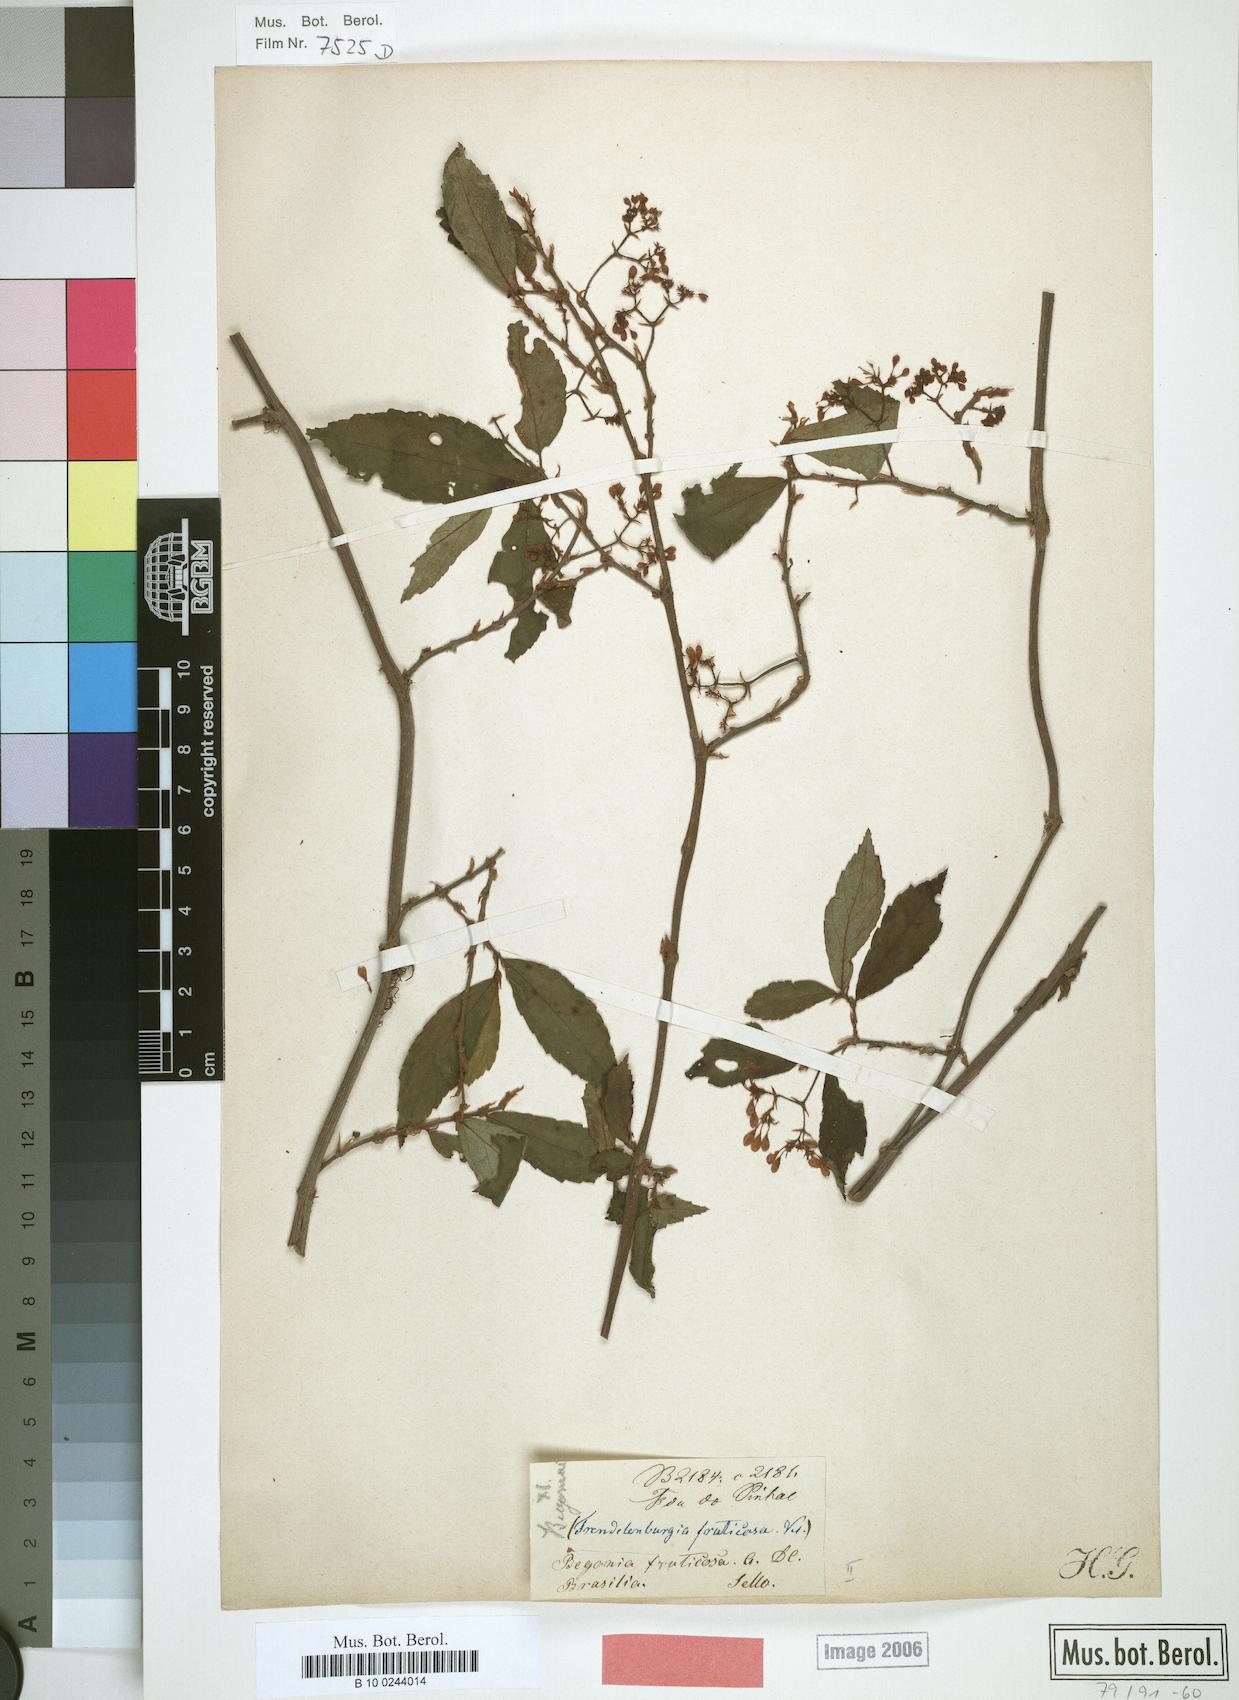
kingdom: Plantae
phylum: Tracheophyta
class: Magnoliopsida
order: Cucurbitales
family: Begoniaceae
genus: Begonia
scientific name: Begonia fruticosa
